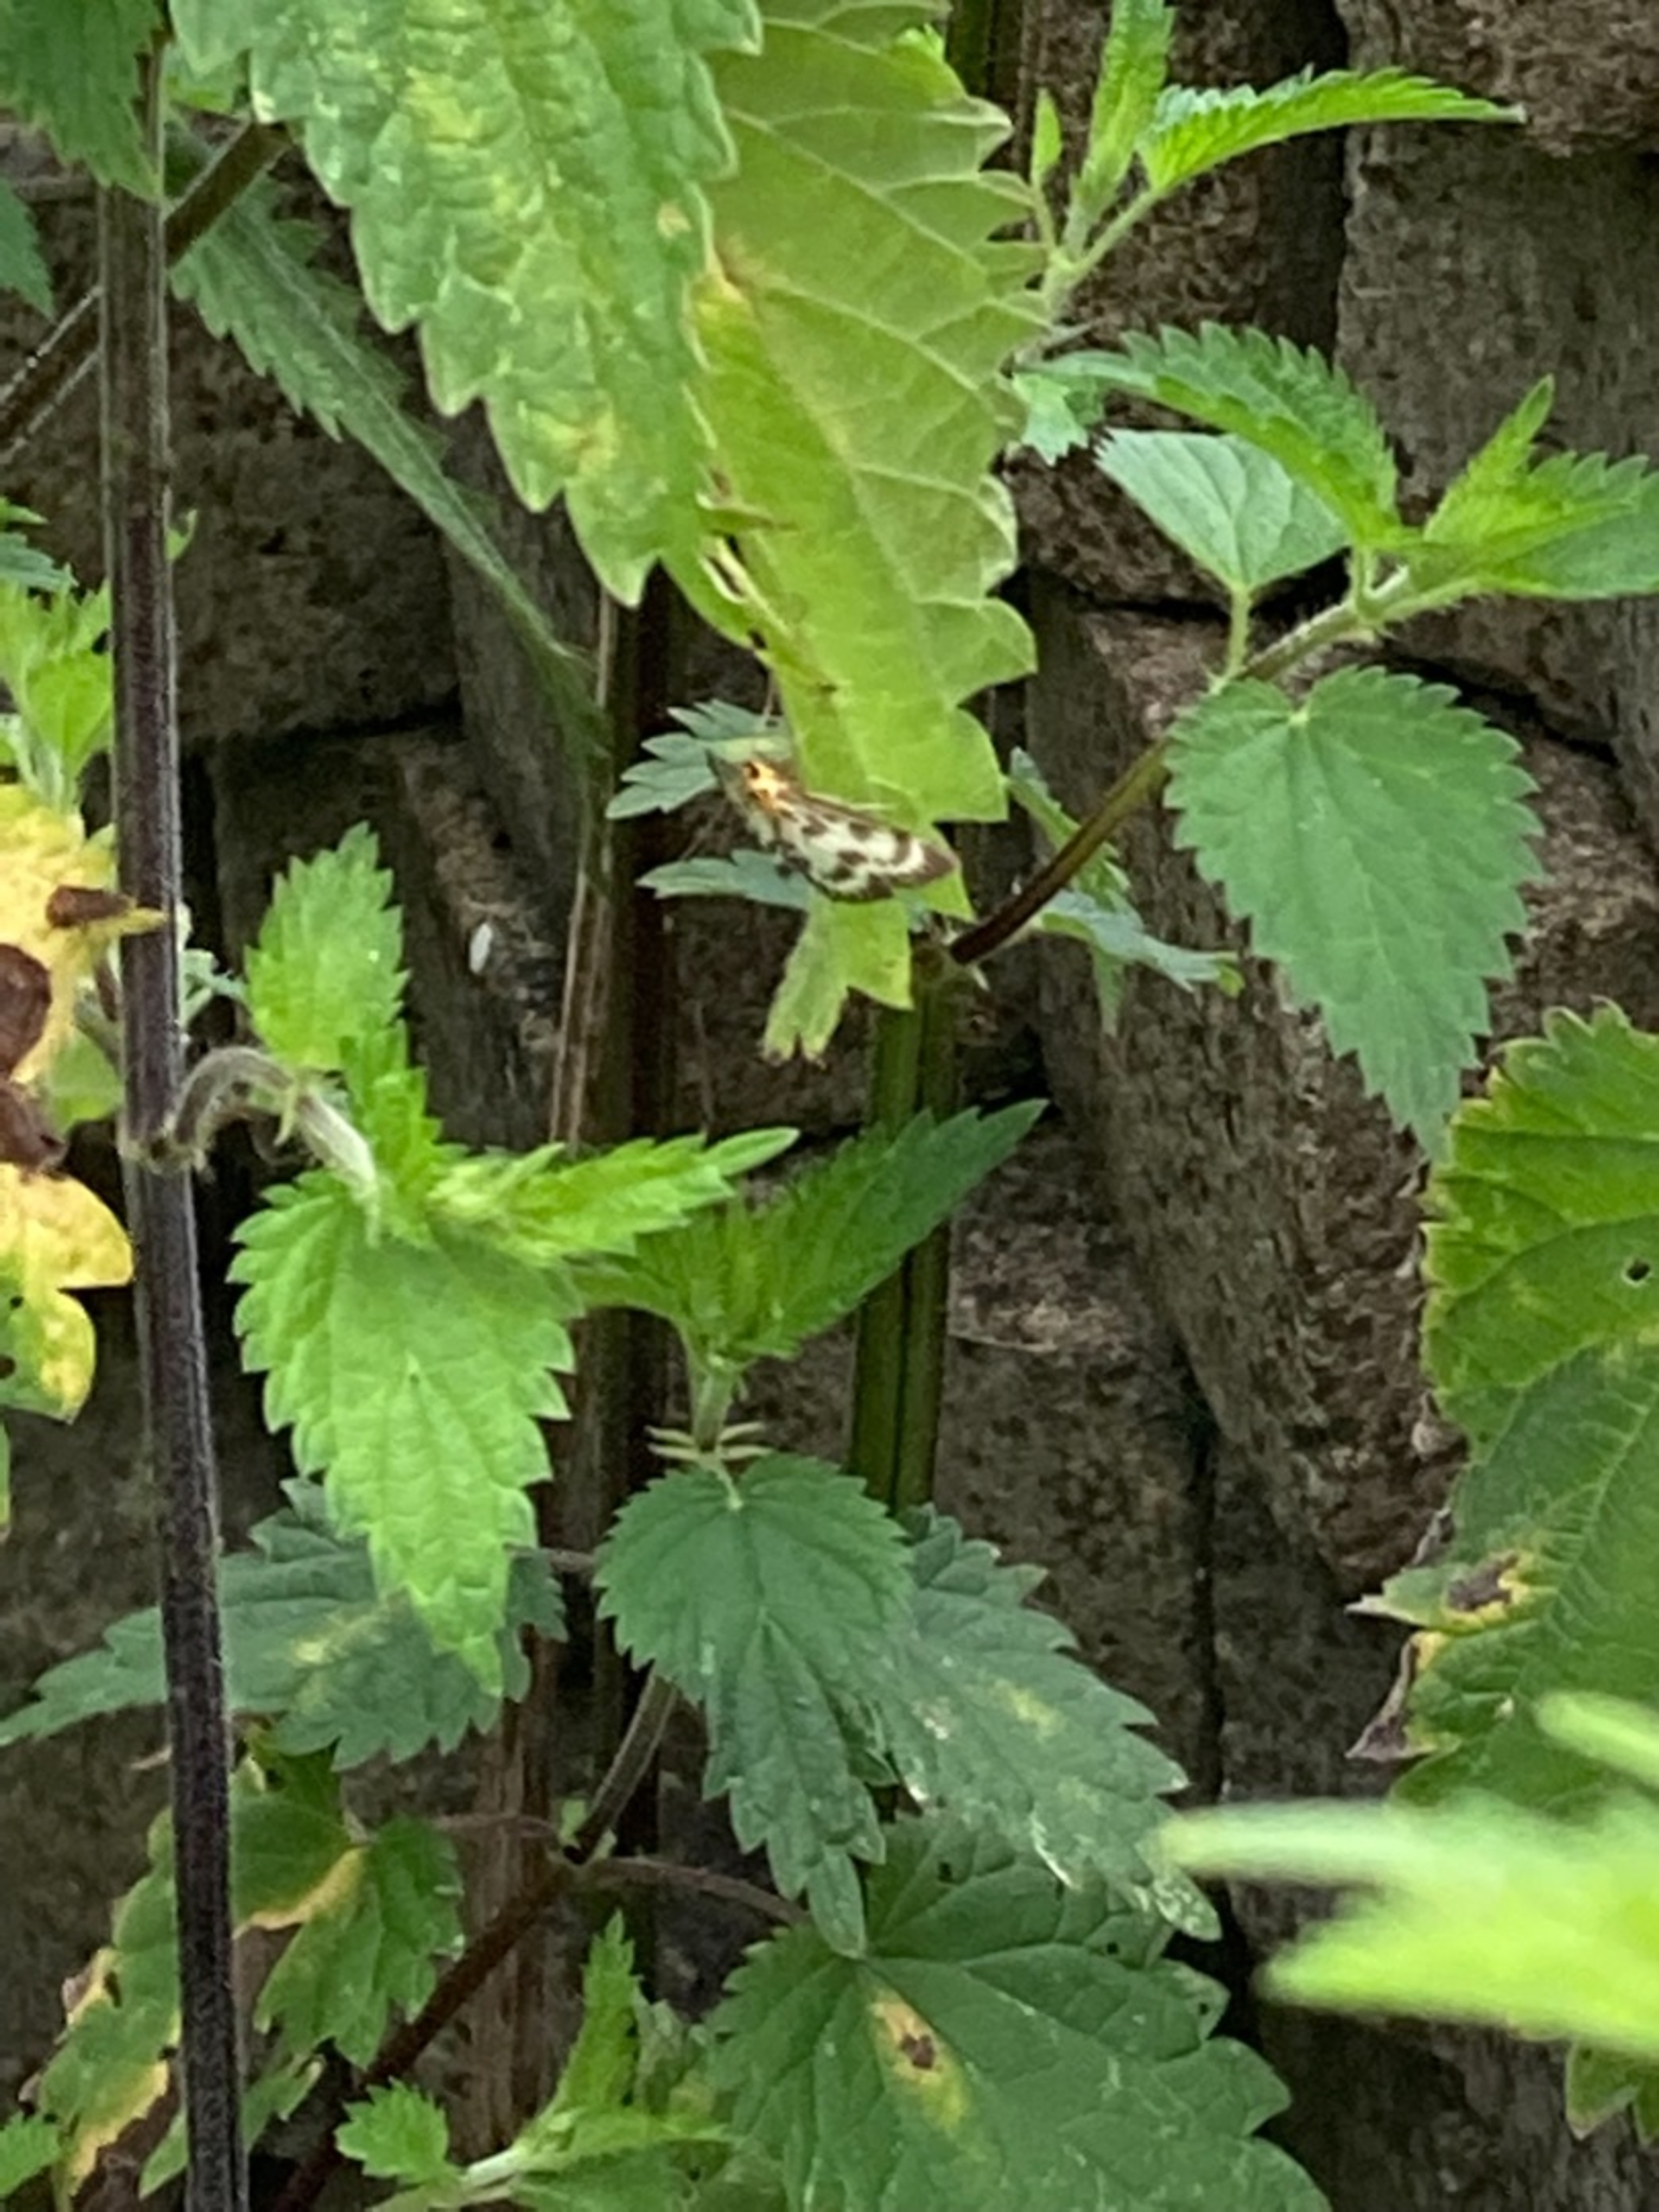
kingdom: Animalia
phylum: Arthropoda
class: Insecta
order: Lepidoptera
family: Crambidae
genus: Anania
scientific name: Anania hortulata
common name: Nældehalvmøl
